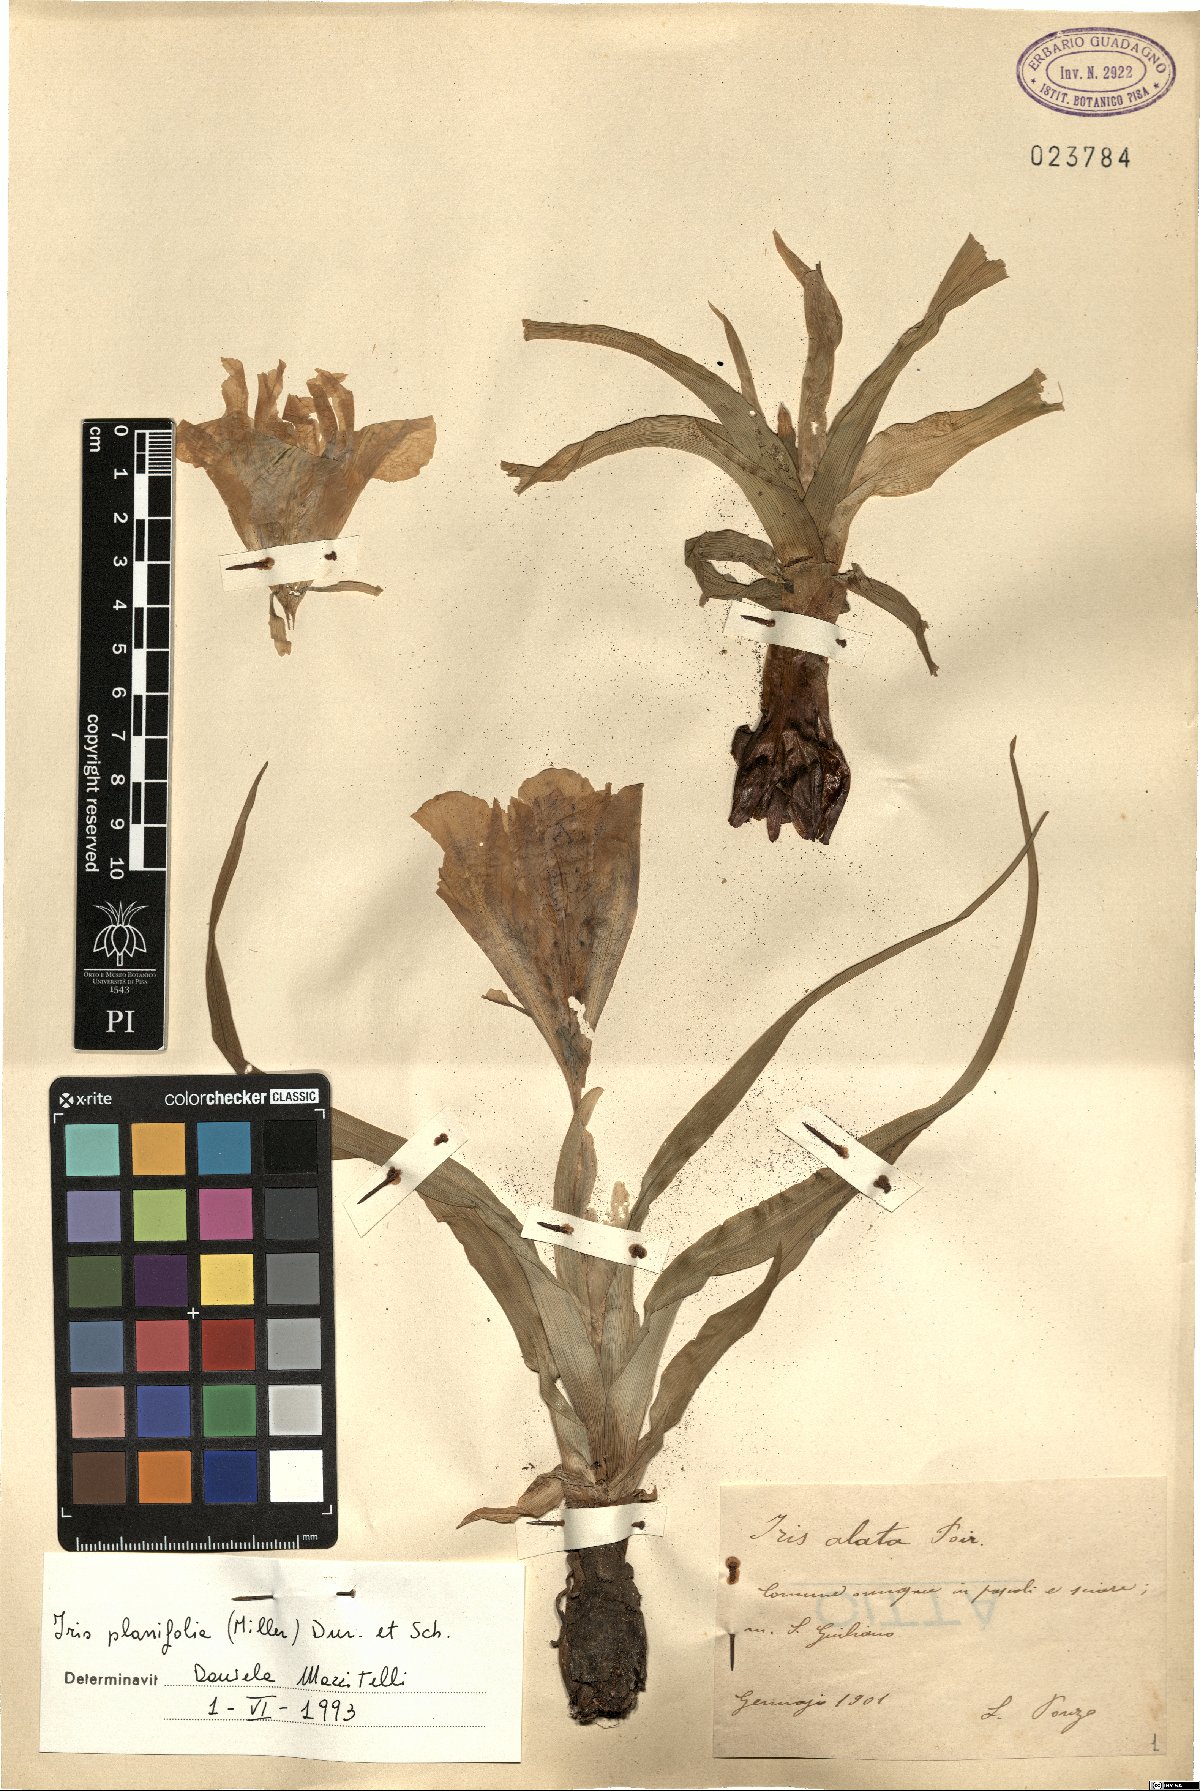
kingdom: Plantae
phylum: Tracheophyta
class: Liliopsida
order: Asparagales
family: Iridaceae
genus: Iris
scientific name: Iris planifolia
